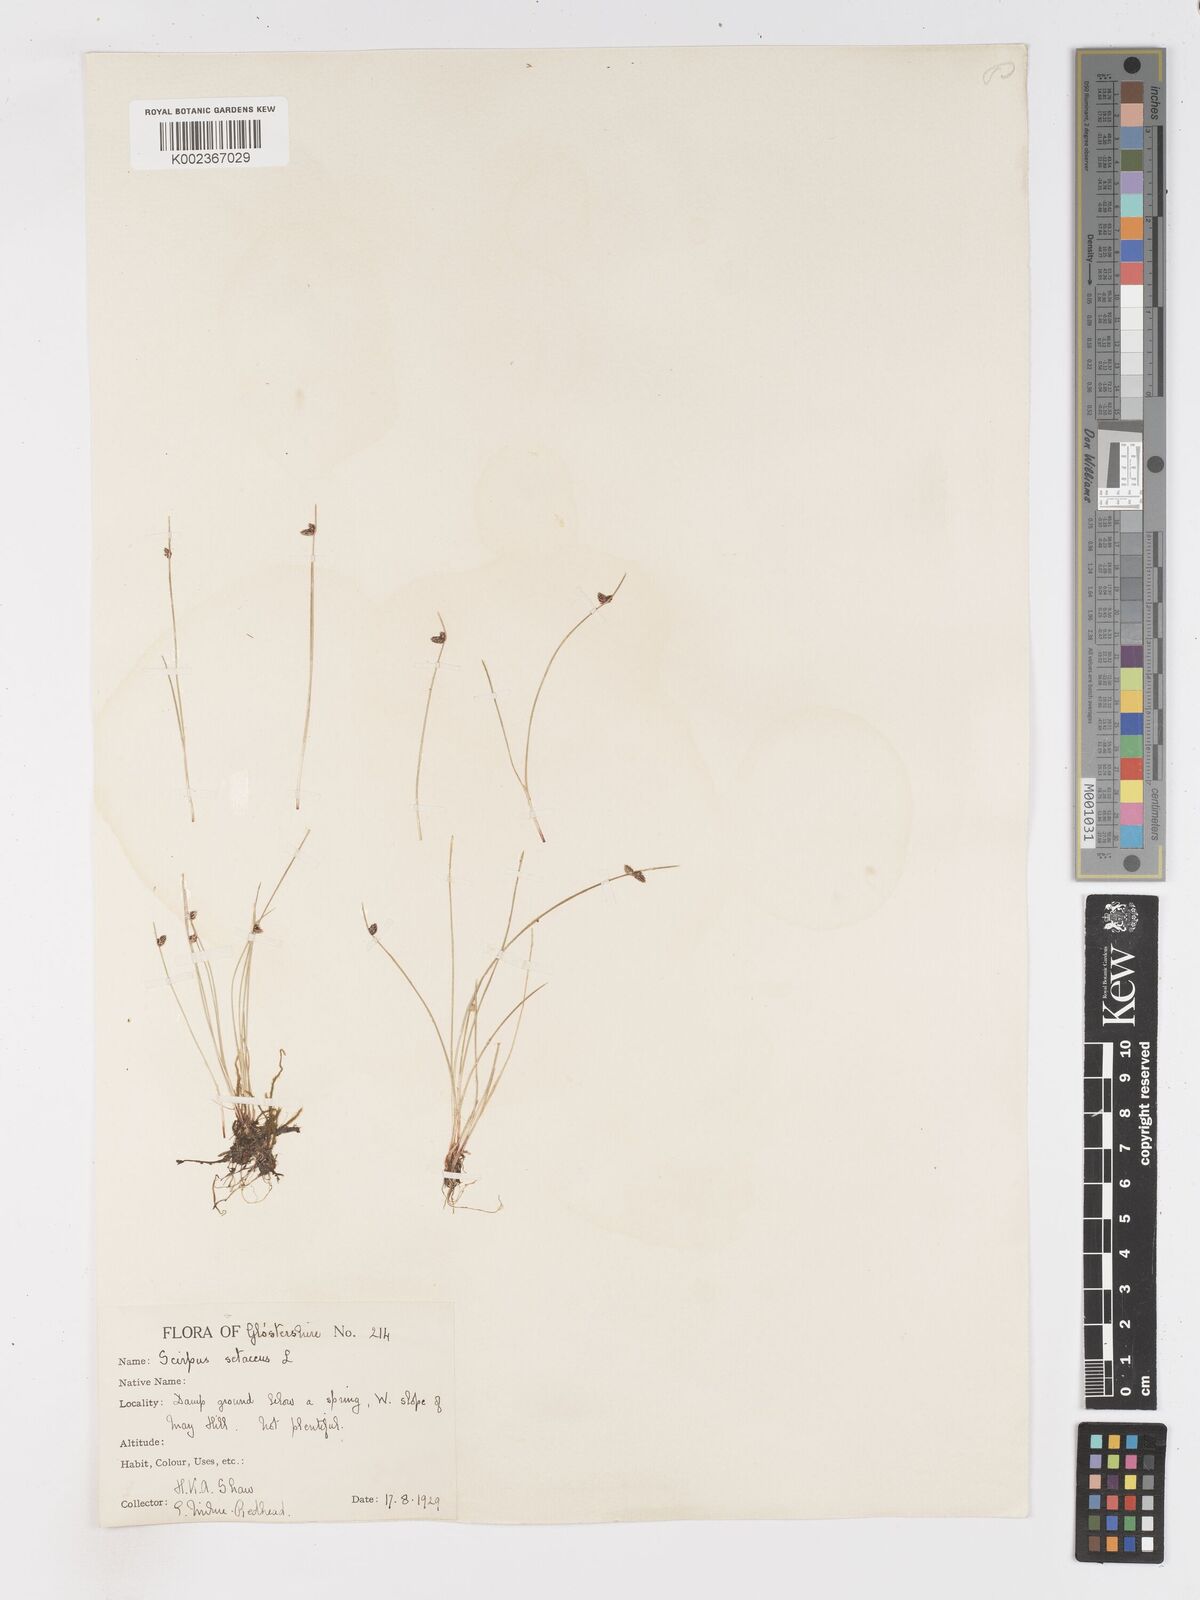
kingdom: Plantae
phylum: Tracheophyta
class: Liliopsida
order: Poales
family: Cyperaceae
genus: Isolepis
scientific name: Isolepis setacea
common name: Bristle club-rush
